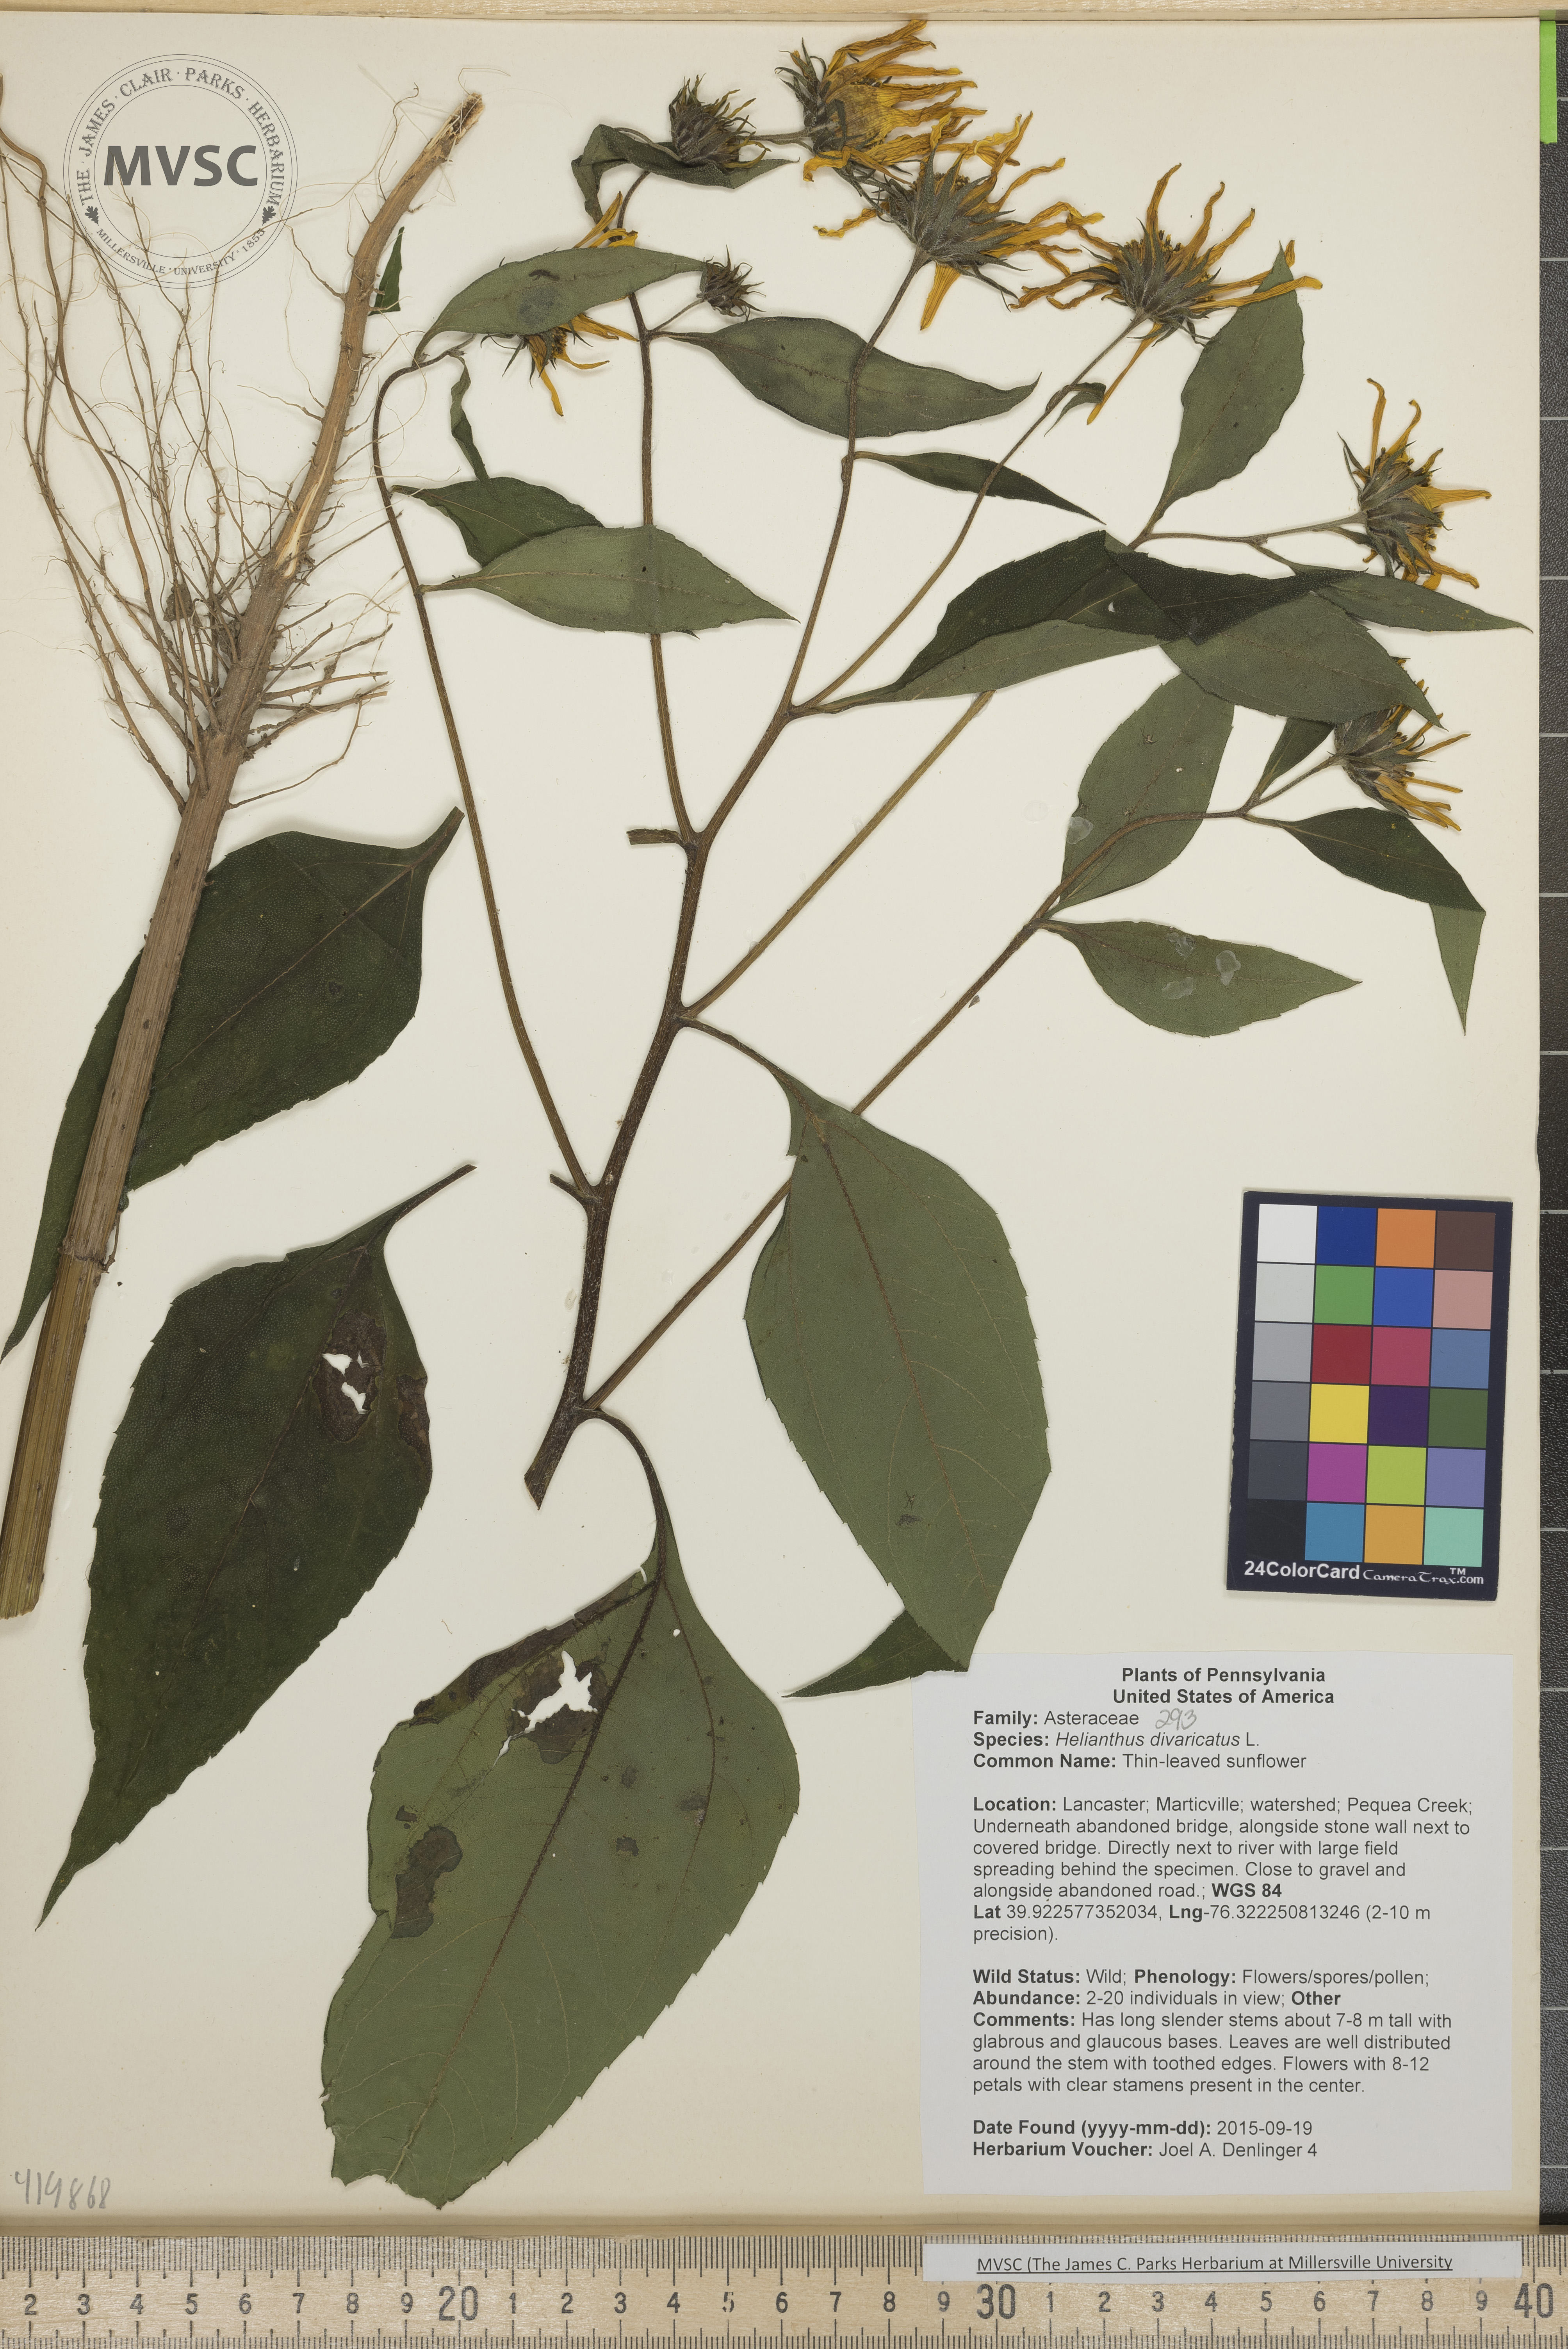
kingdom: Plantae
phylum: Tracheophyta
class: Magnoliopsida
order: Asterales
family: Asteraceae
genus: Helianthus
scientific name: Helianthus divaricatus
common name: Thin-leaved sunflower
